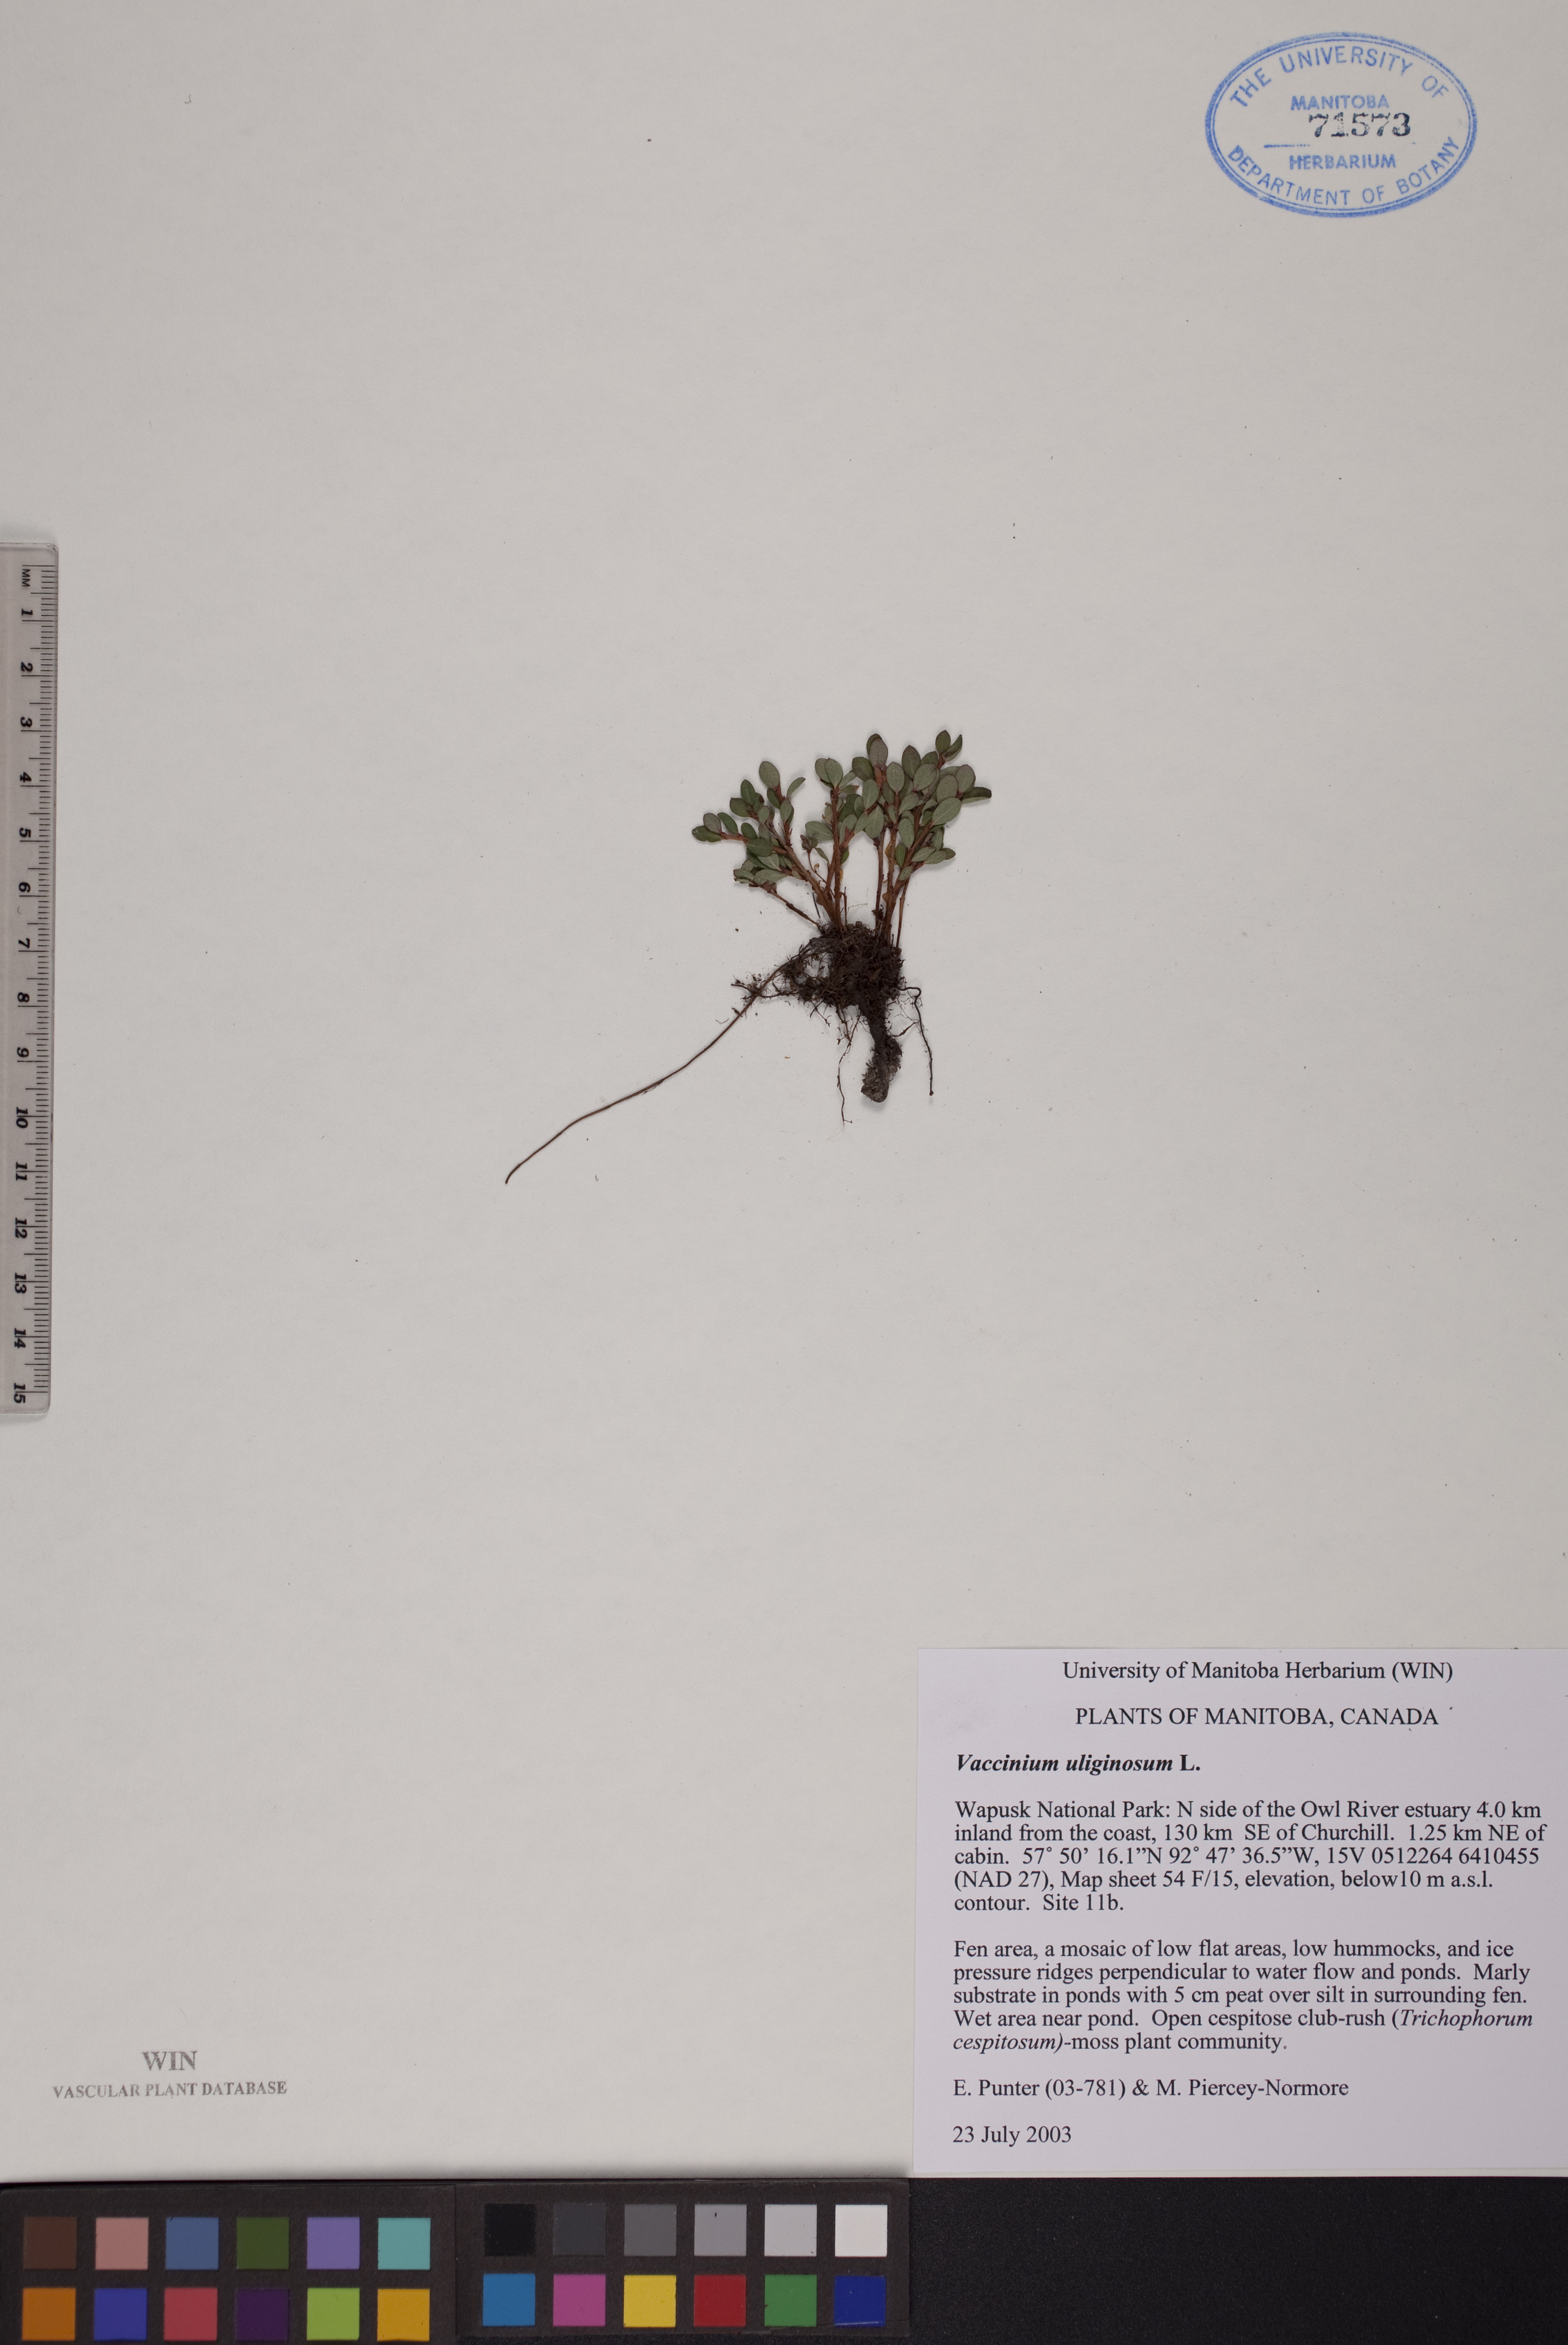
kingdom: Plantae
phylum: Tracheophyta
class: Magnoliopsida
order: Ericales
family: Ericaceae
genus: Vaccinium
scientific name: Vaccinium uliginosum
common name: Bog bilberry
